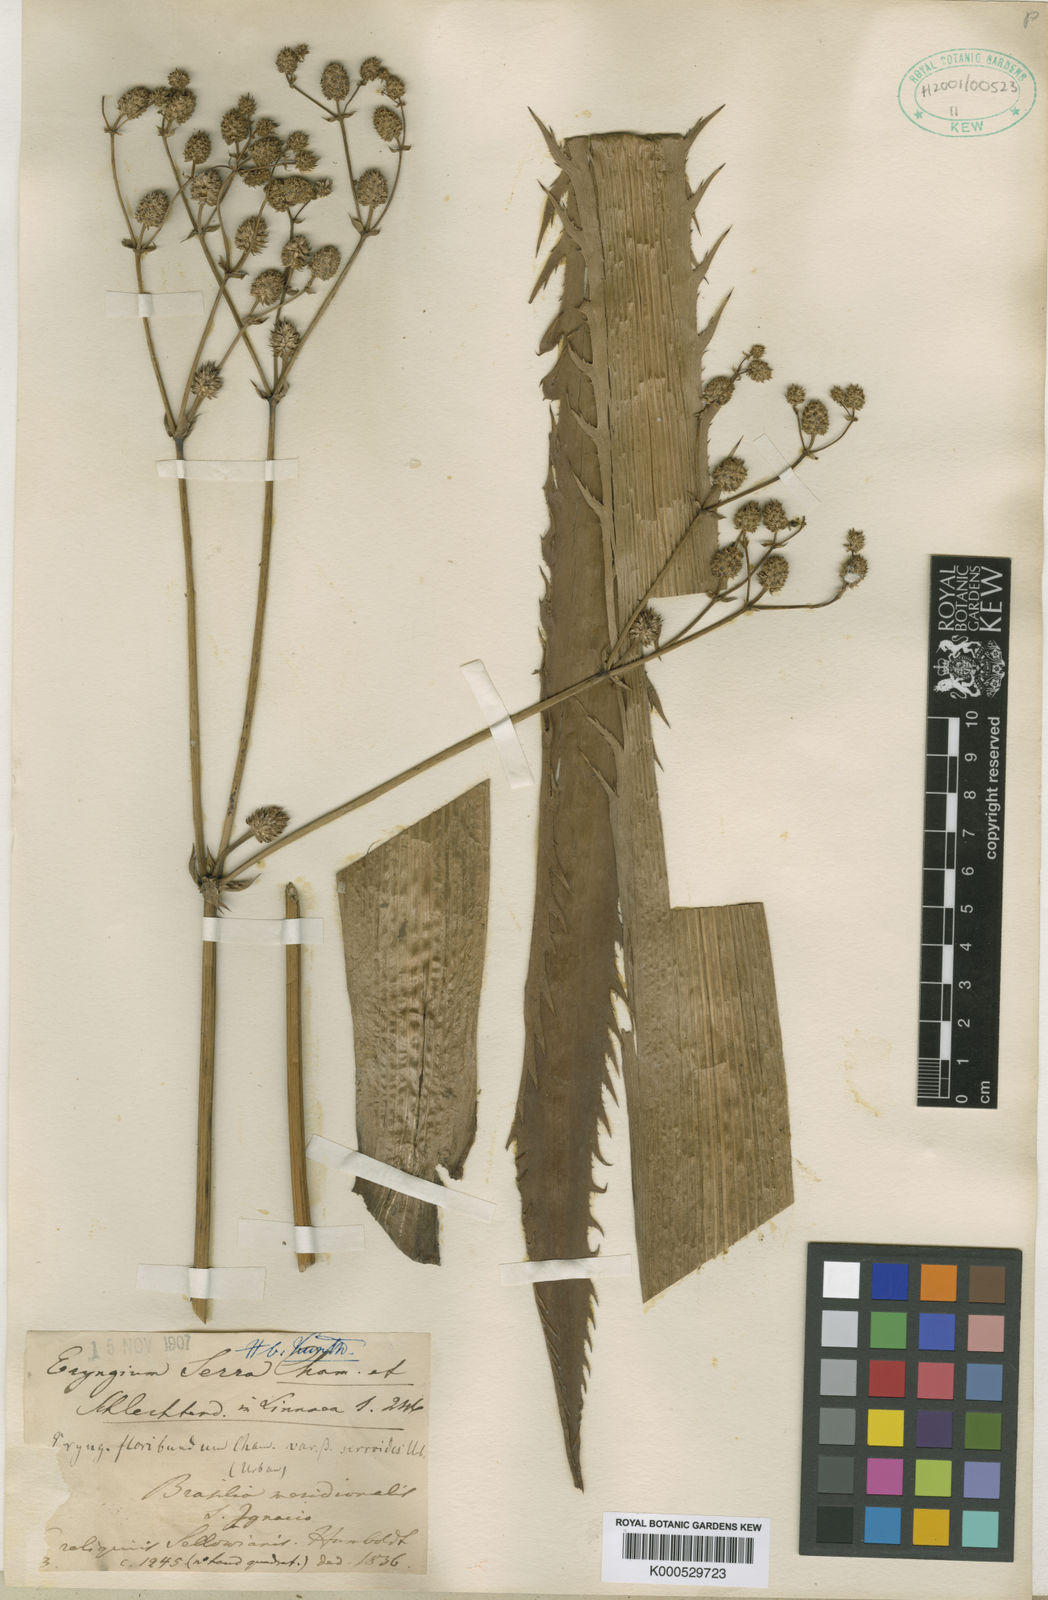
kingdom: Plantae
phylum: Tracheophyta
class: Magnoliopsida
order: Apiales
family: Apiaceae
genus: Eryngium
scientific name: Eryngium floribundum
